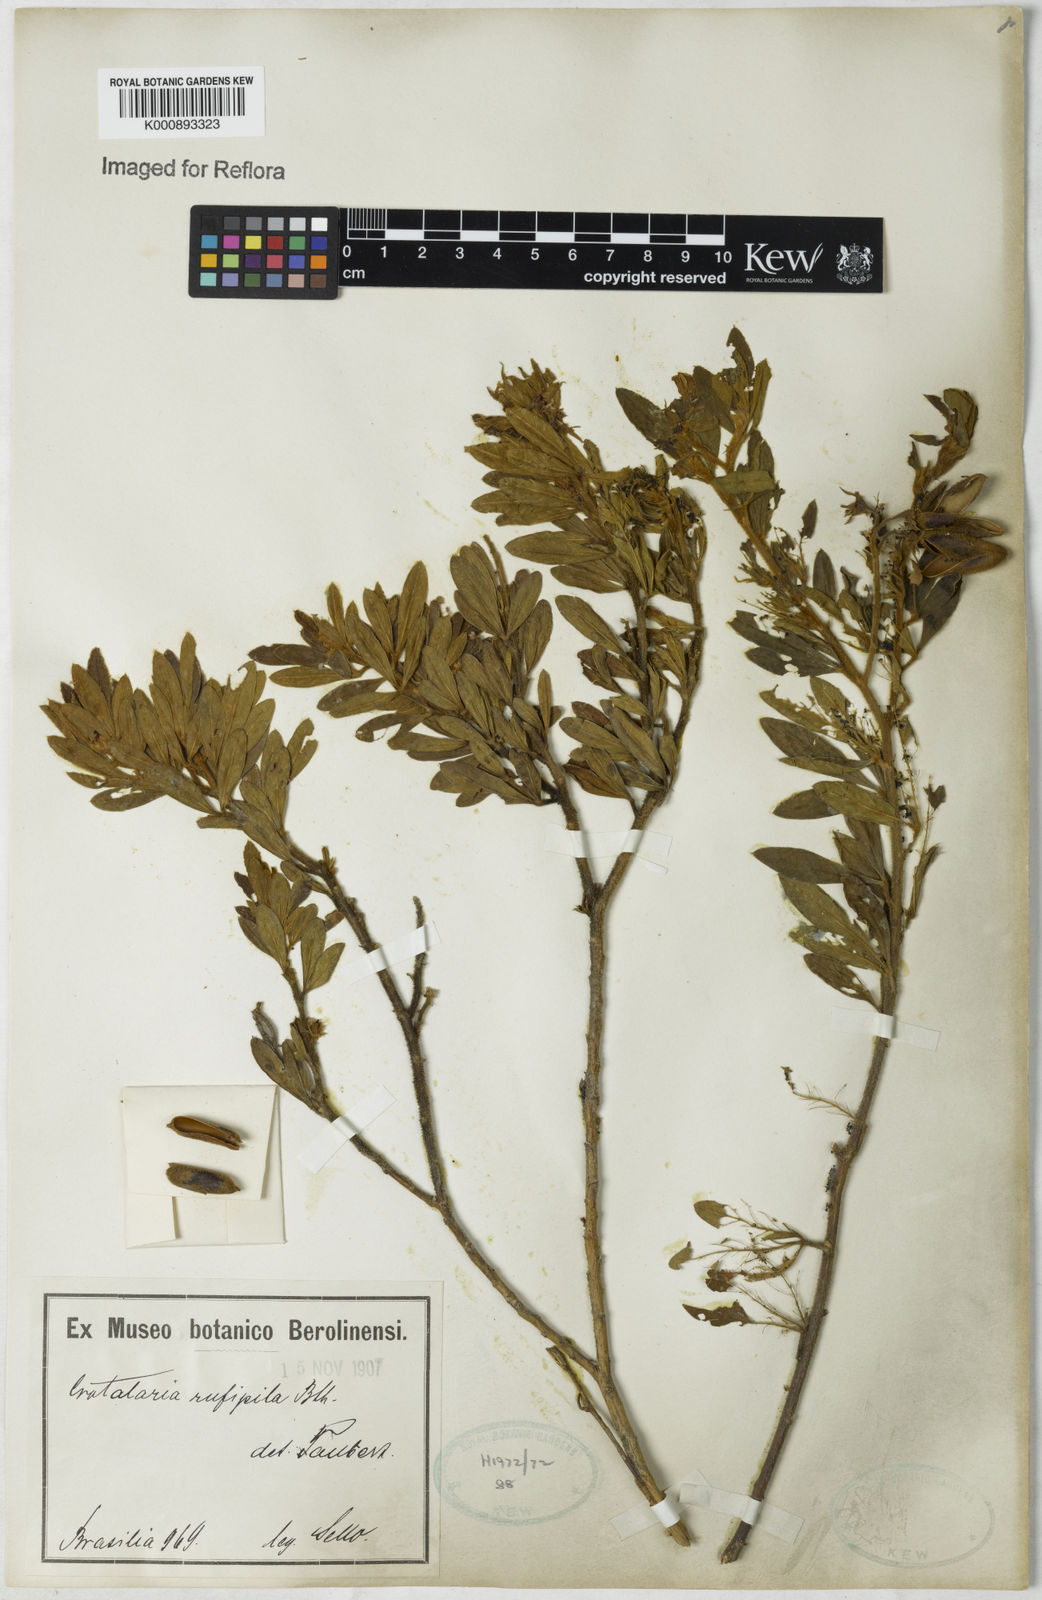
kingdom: Plantae
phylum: Tracheophyta
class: Magnoliopsida
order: Fabales
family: Fabaceae
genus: Crotalaria
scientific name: Crotalaria rufipila
